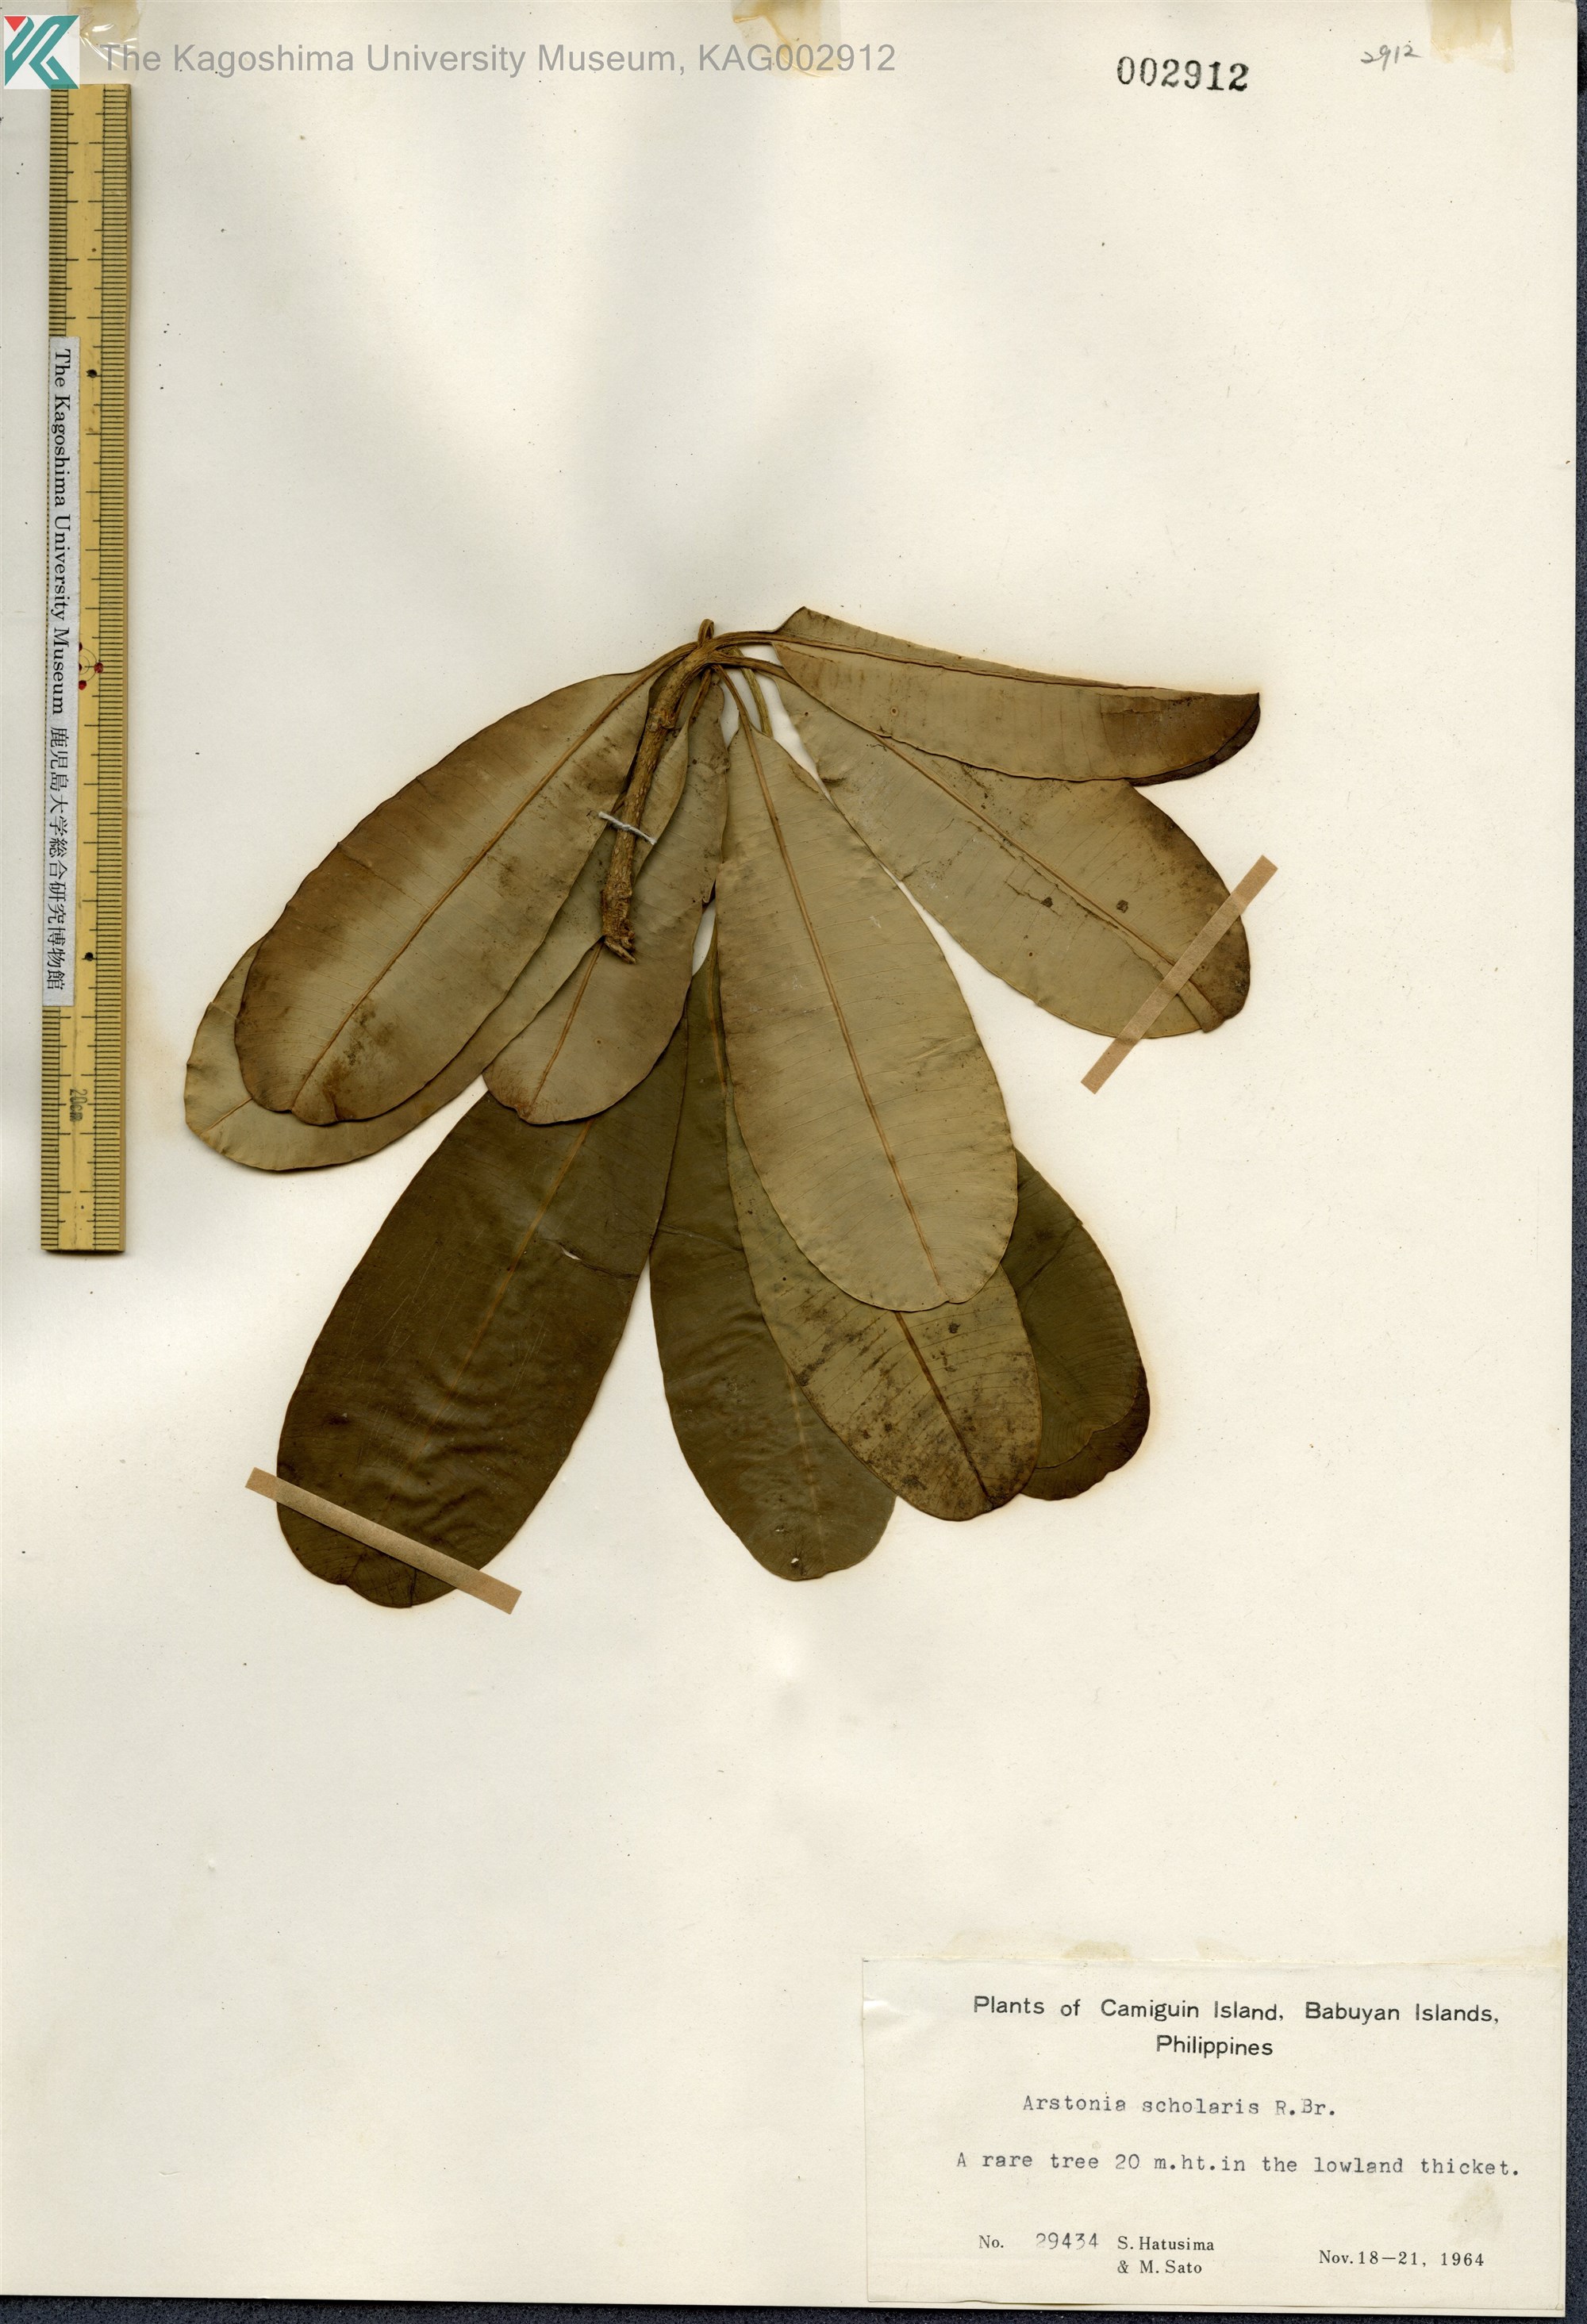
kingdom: Plantae
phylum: Tracheophyta
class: Magnoliopsida
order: Gentianales
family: Apocynaceae
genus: Alstonia
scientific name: Alstonia scholaris
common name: White cheesewood
